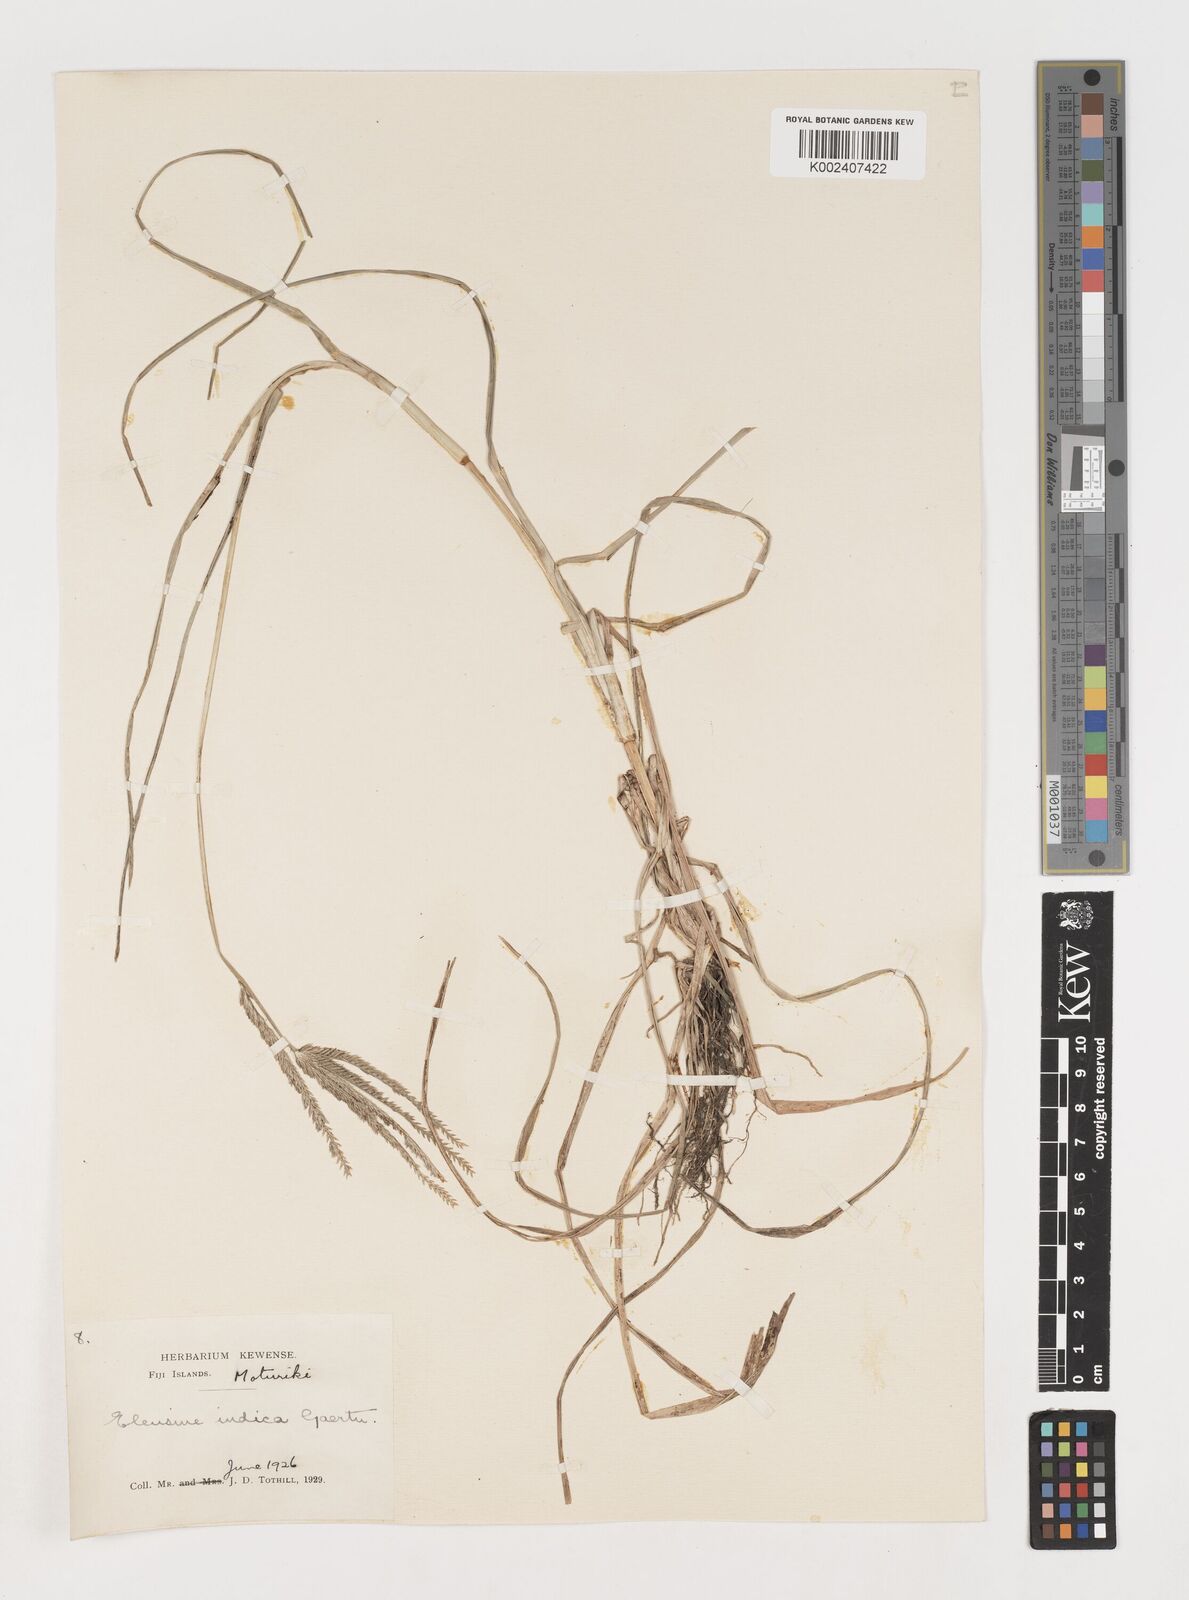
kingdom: Plantae
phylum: Tracheophyta
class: Liliopsida
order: Poales
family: Poaceae
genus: Eleusine
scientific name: Eleusine indica
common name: Yard-grass
